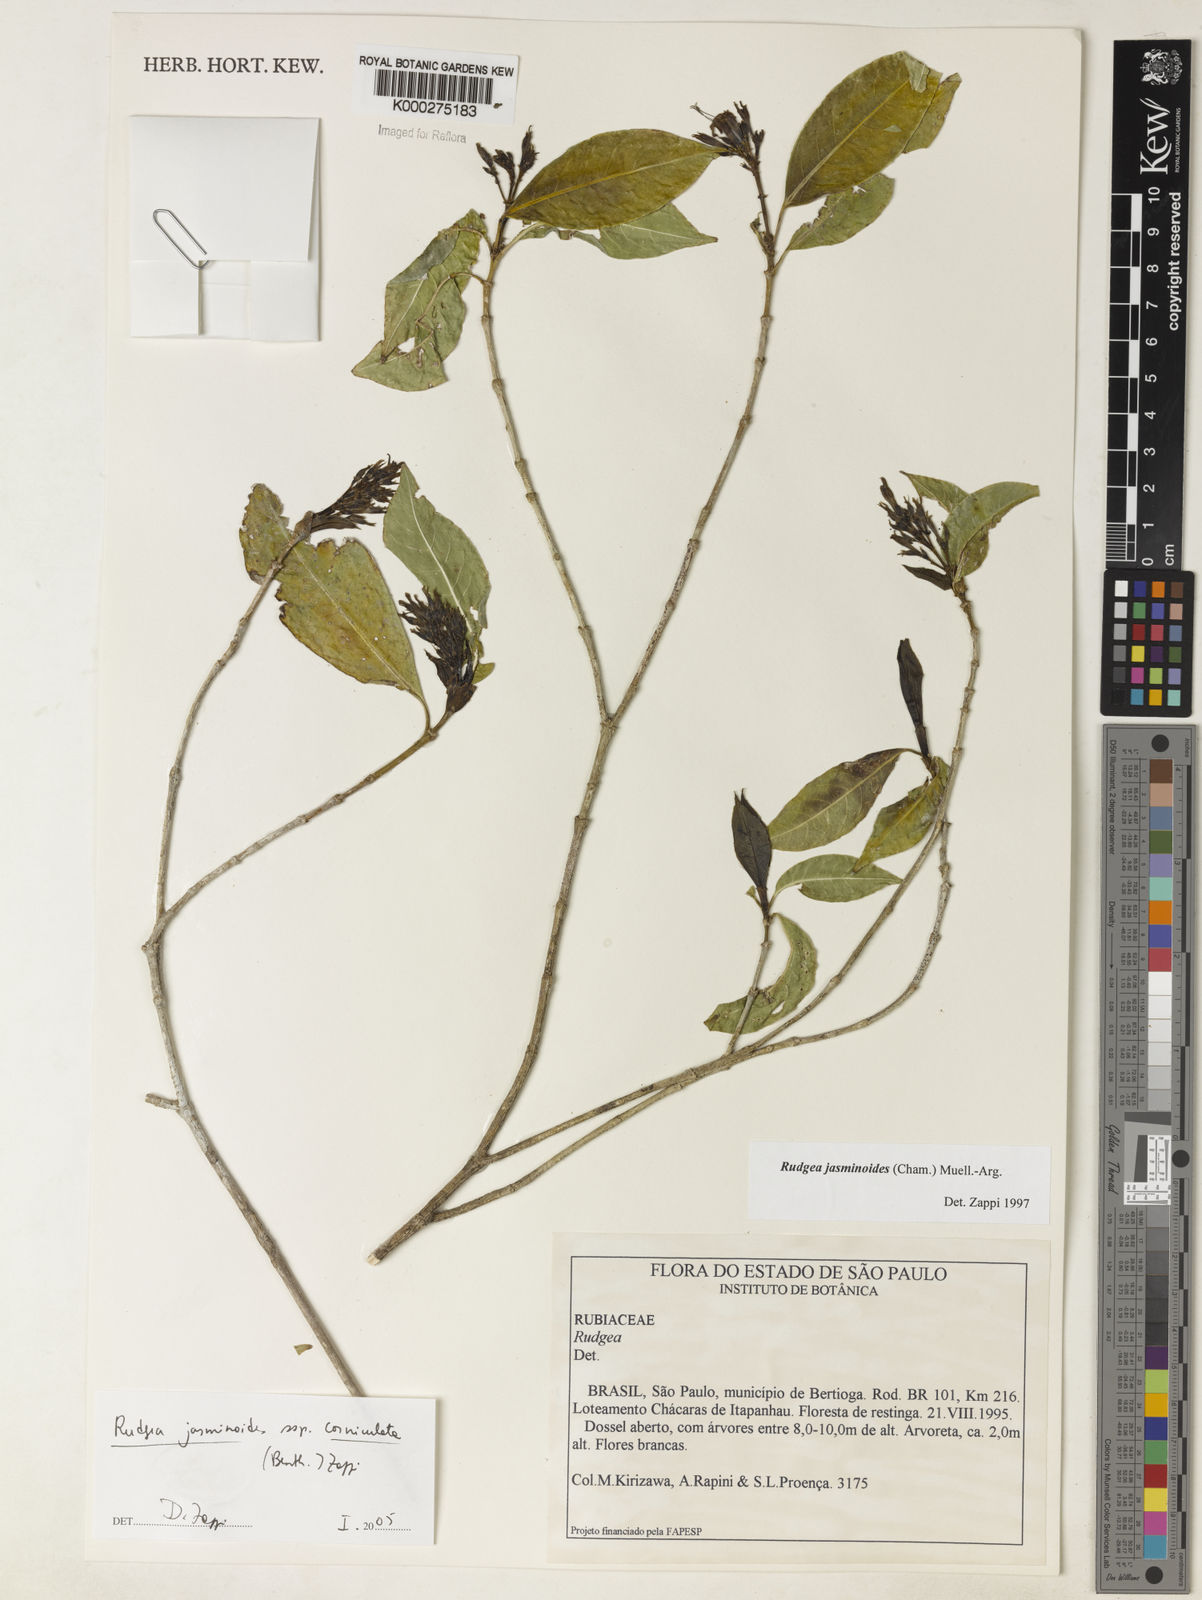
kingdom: Plantae
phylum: Tracheophyta
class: Magnoliopsida
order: Gentianales
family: Rubiaceae
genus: Rudgea
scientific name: Rudgea jasminoides
